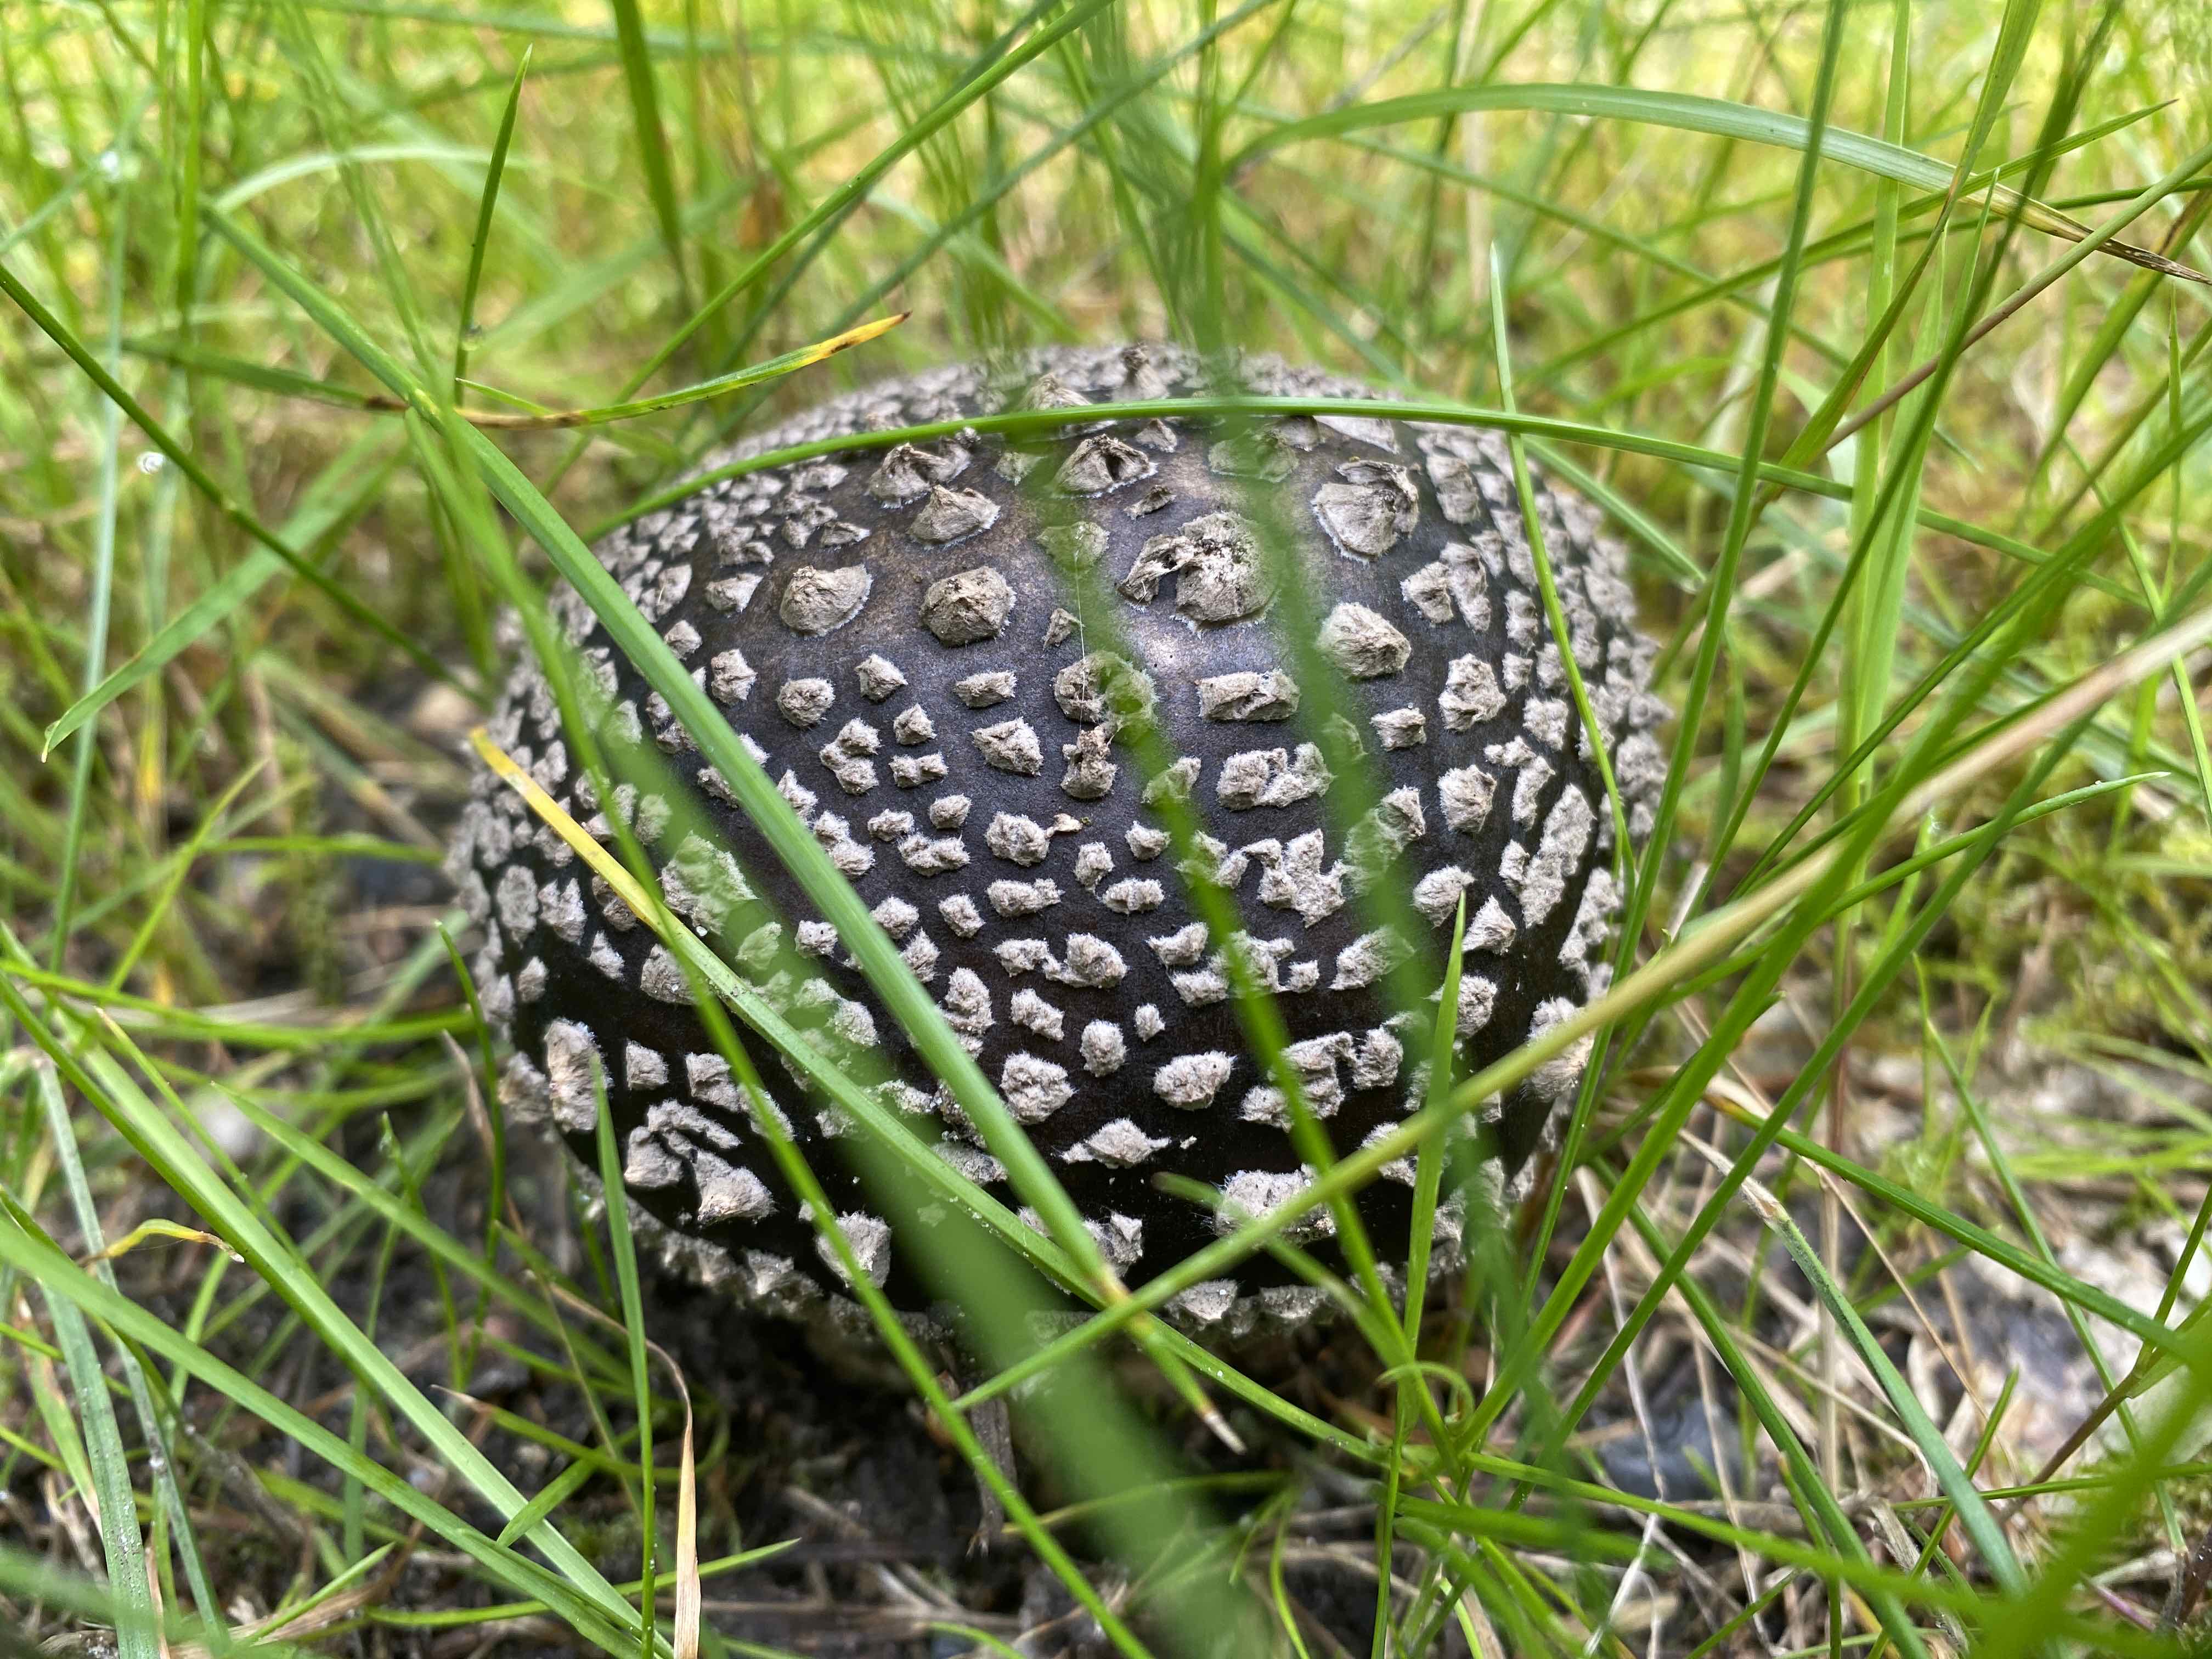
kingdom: Fungi
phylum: Basidiomycota
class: Agaricomycetes
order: Agaricales
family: Amanitaceae
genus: Amanita
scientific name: Amanita
